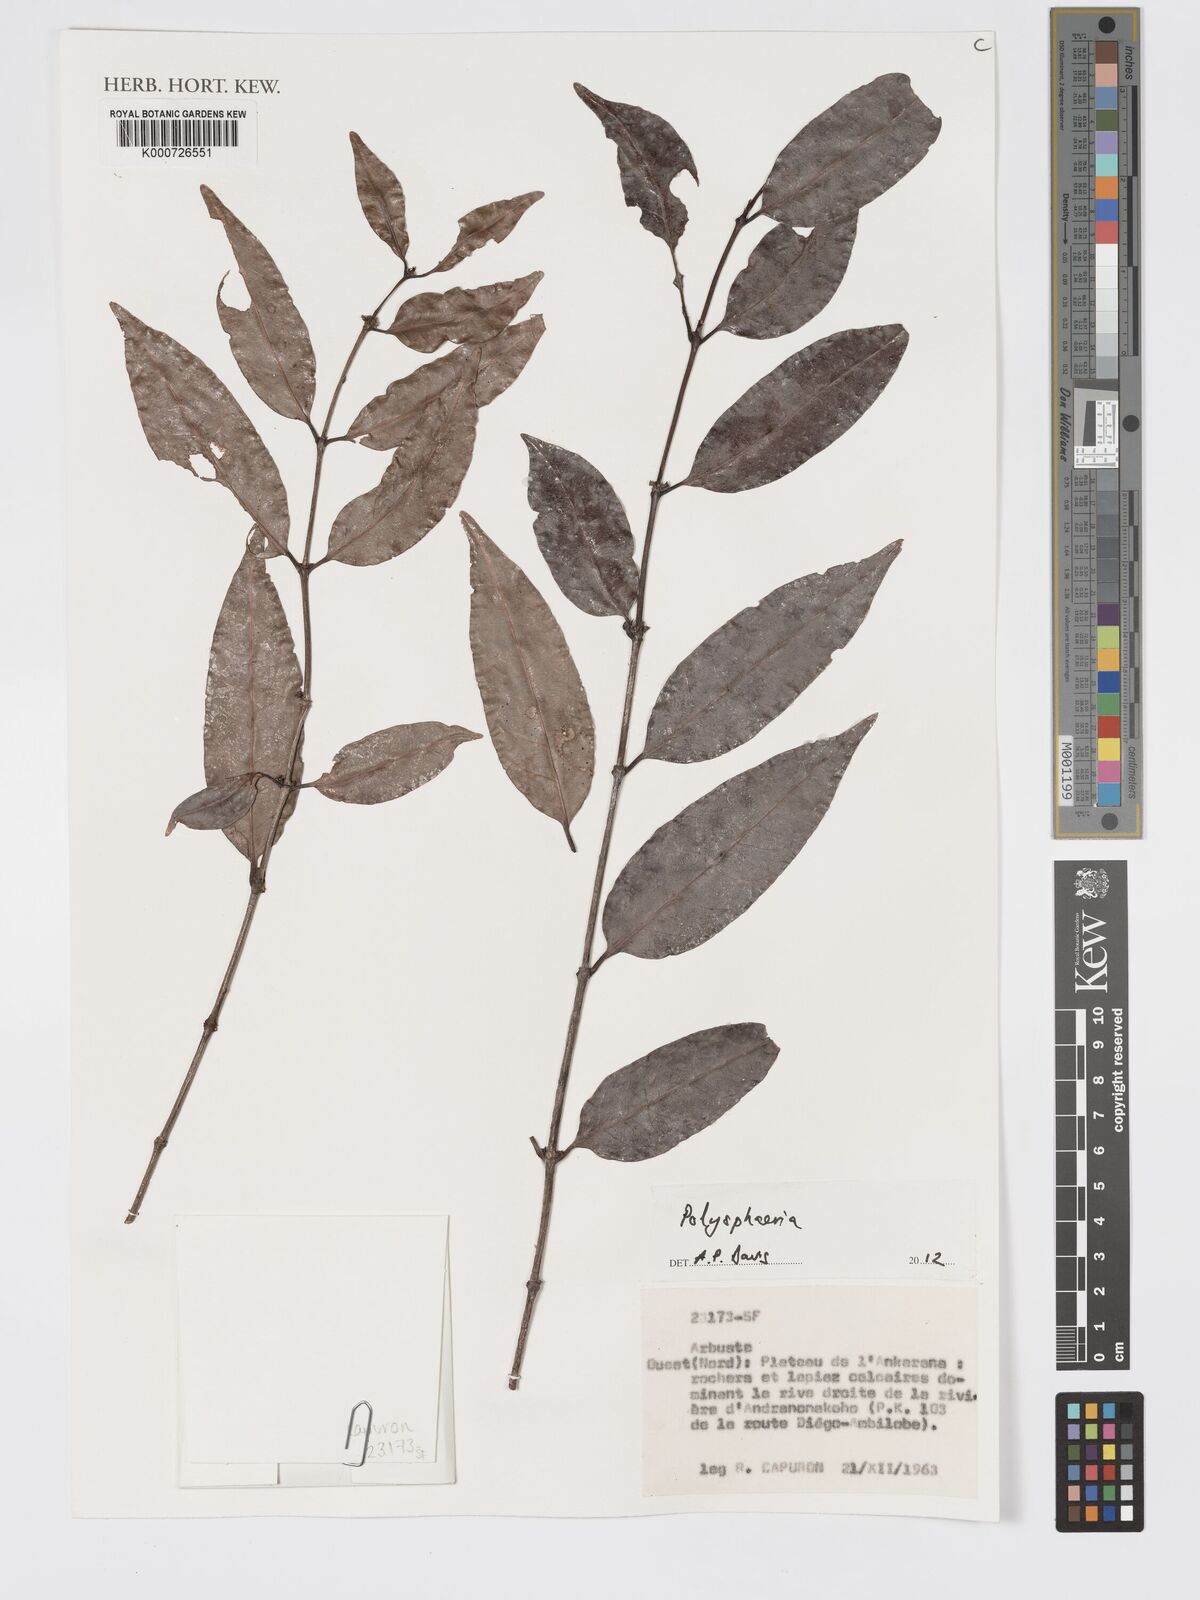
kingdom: Plantae
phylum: Tracheophyta
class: Magnoliopsida
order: Gentianales
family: Rubiaceae
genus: Polysphaeria
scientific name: Polysphaeria
